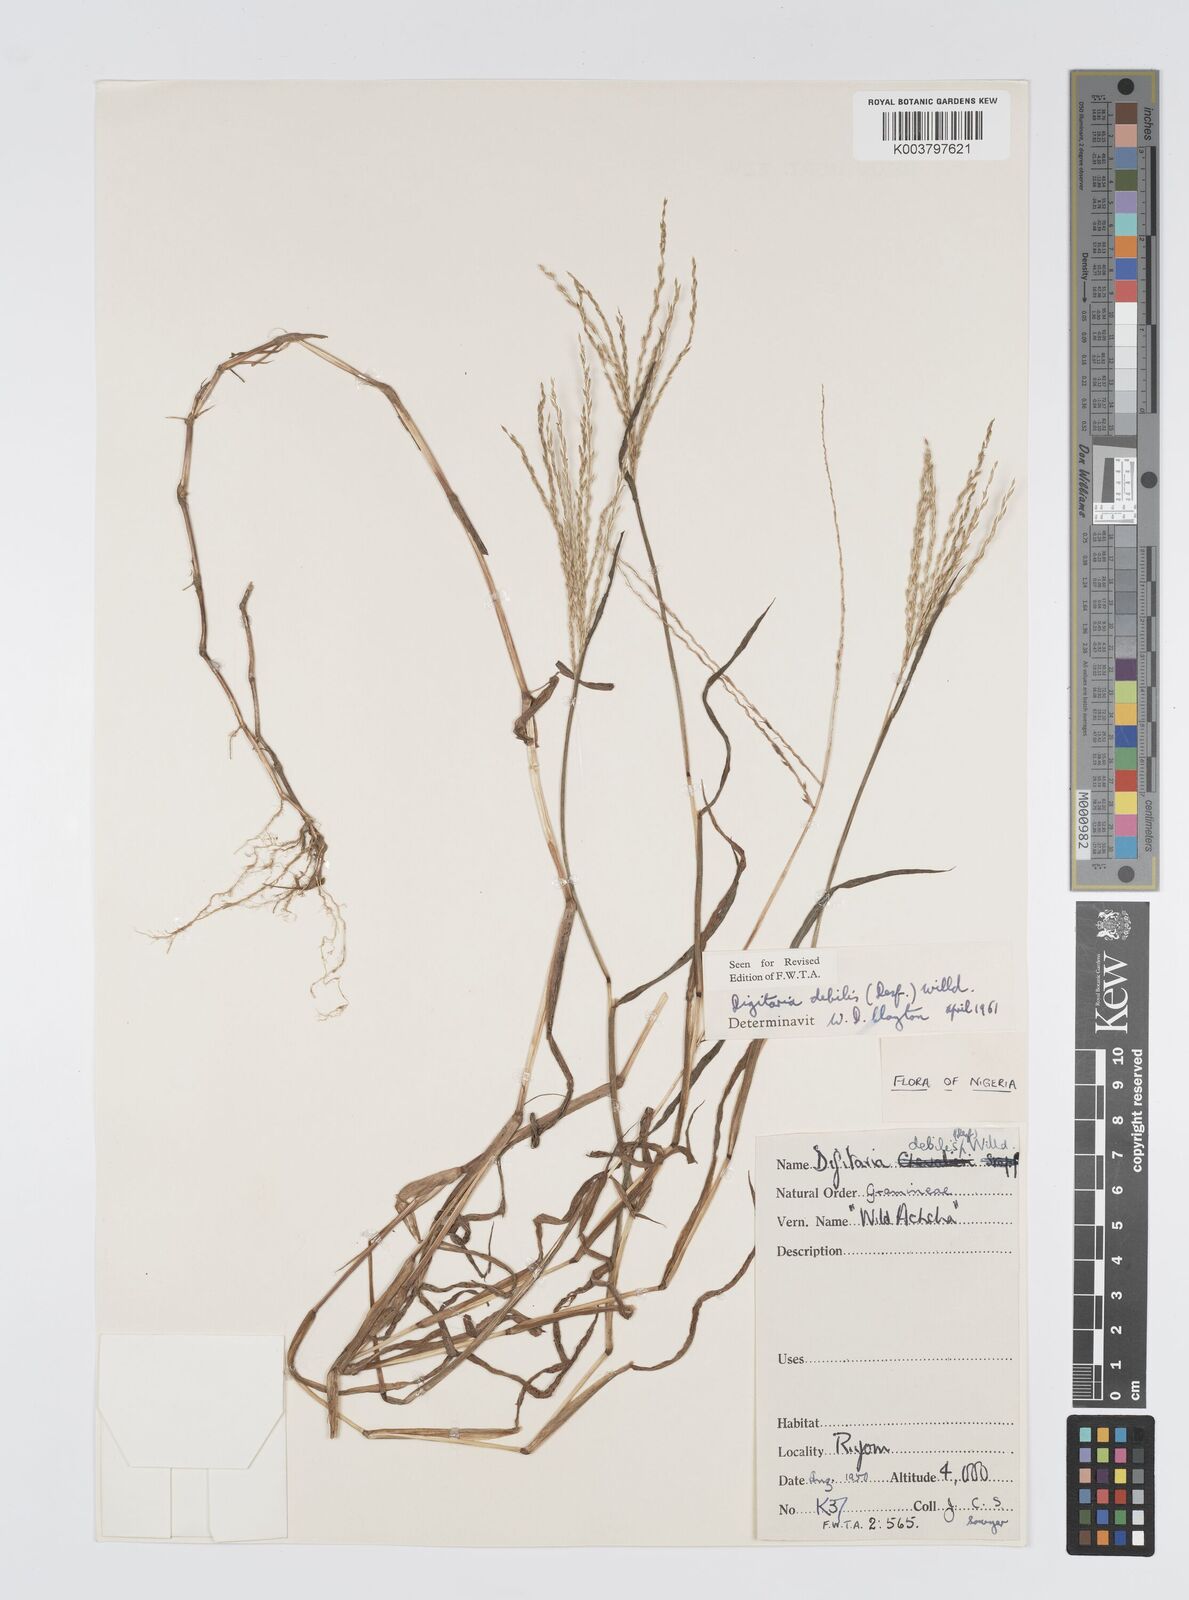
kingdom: Plantae
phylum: Tracheophyta
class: Liliopsida
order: Poales
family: Poaceae
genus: Digitaria
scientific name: Digitaria debilis
